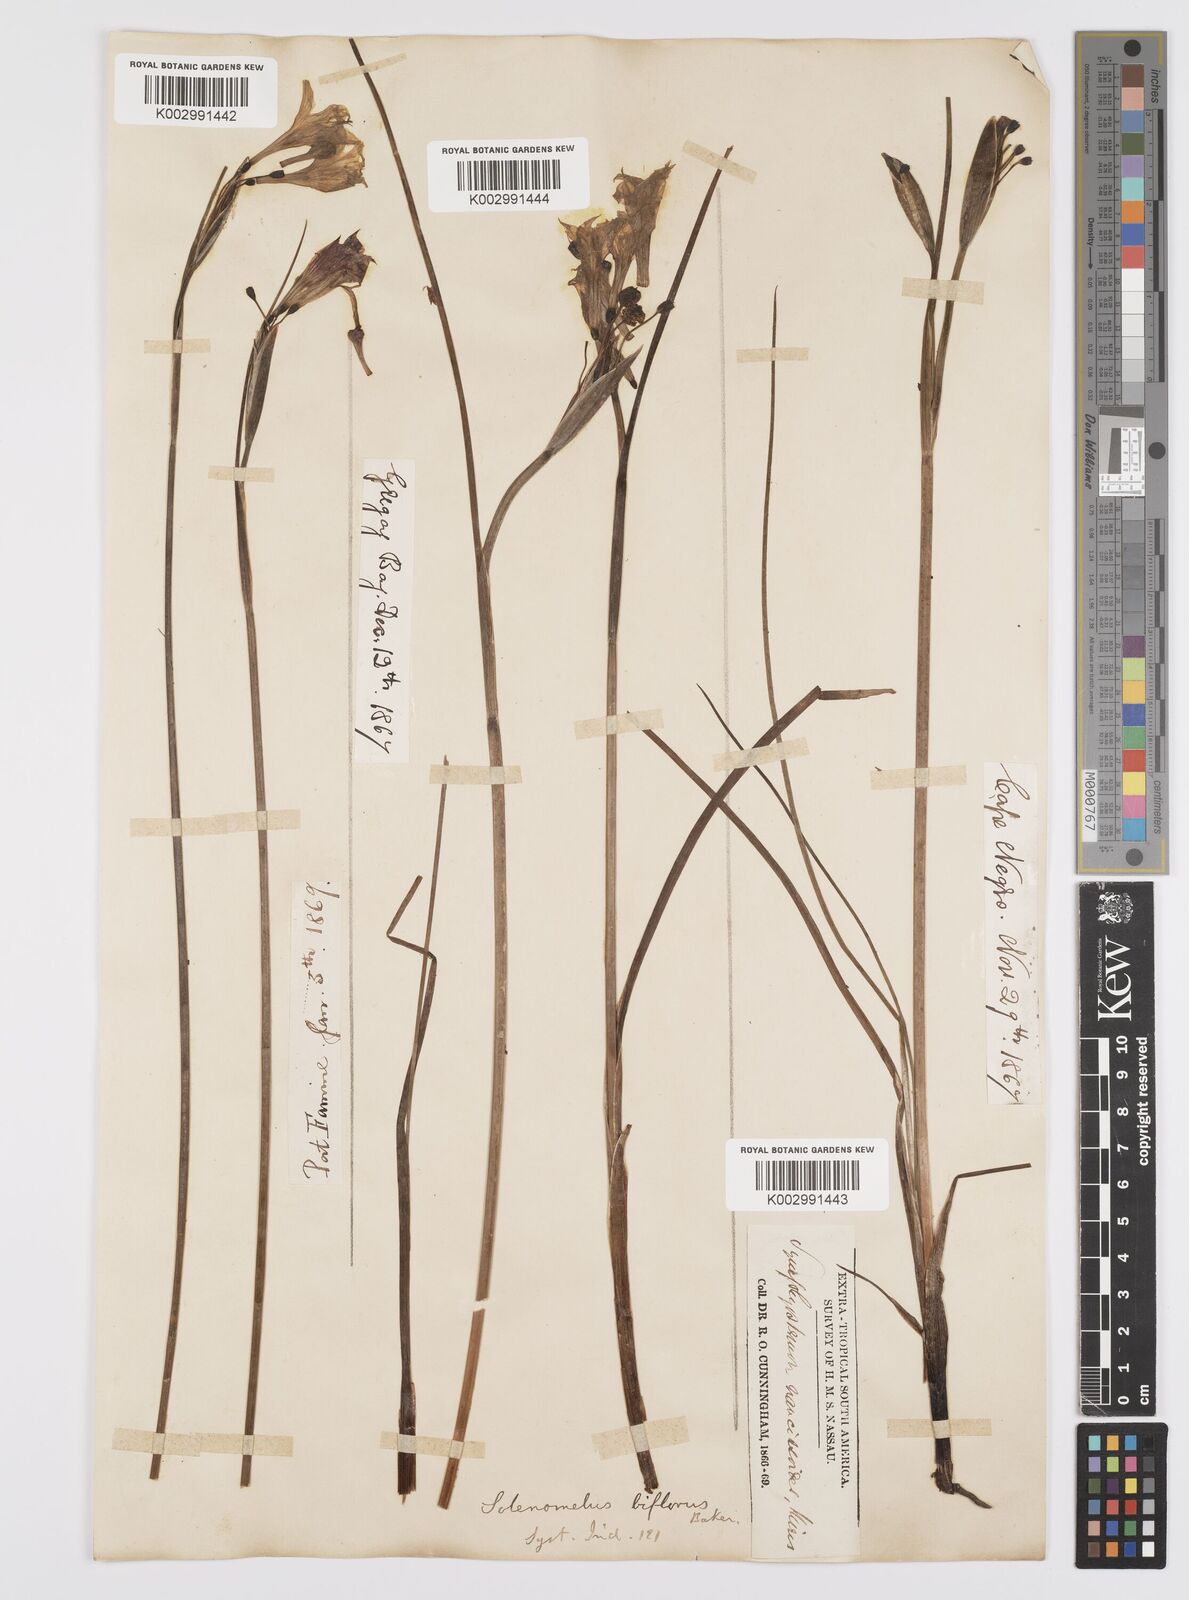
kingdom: Plantae
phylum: Tracheophyta
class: Liliopsida
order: Asparagales
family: Iridaceae
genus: Olsynium
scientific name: Olsynium biflorum
